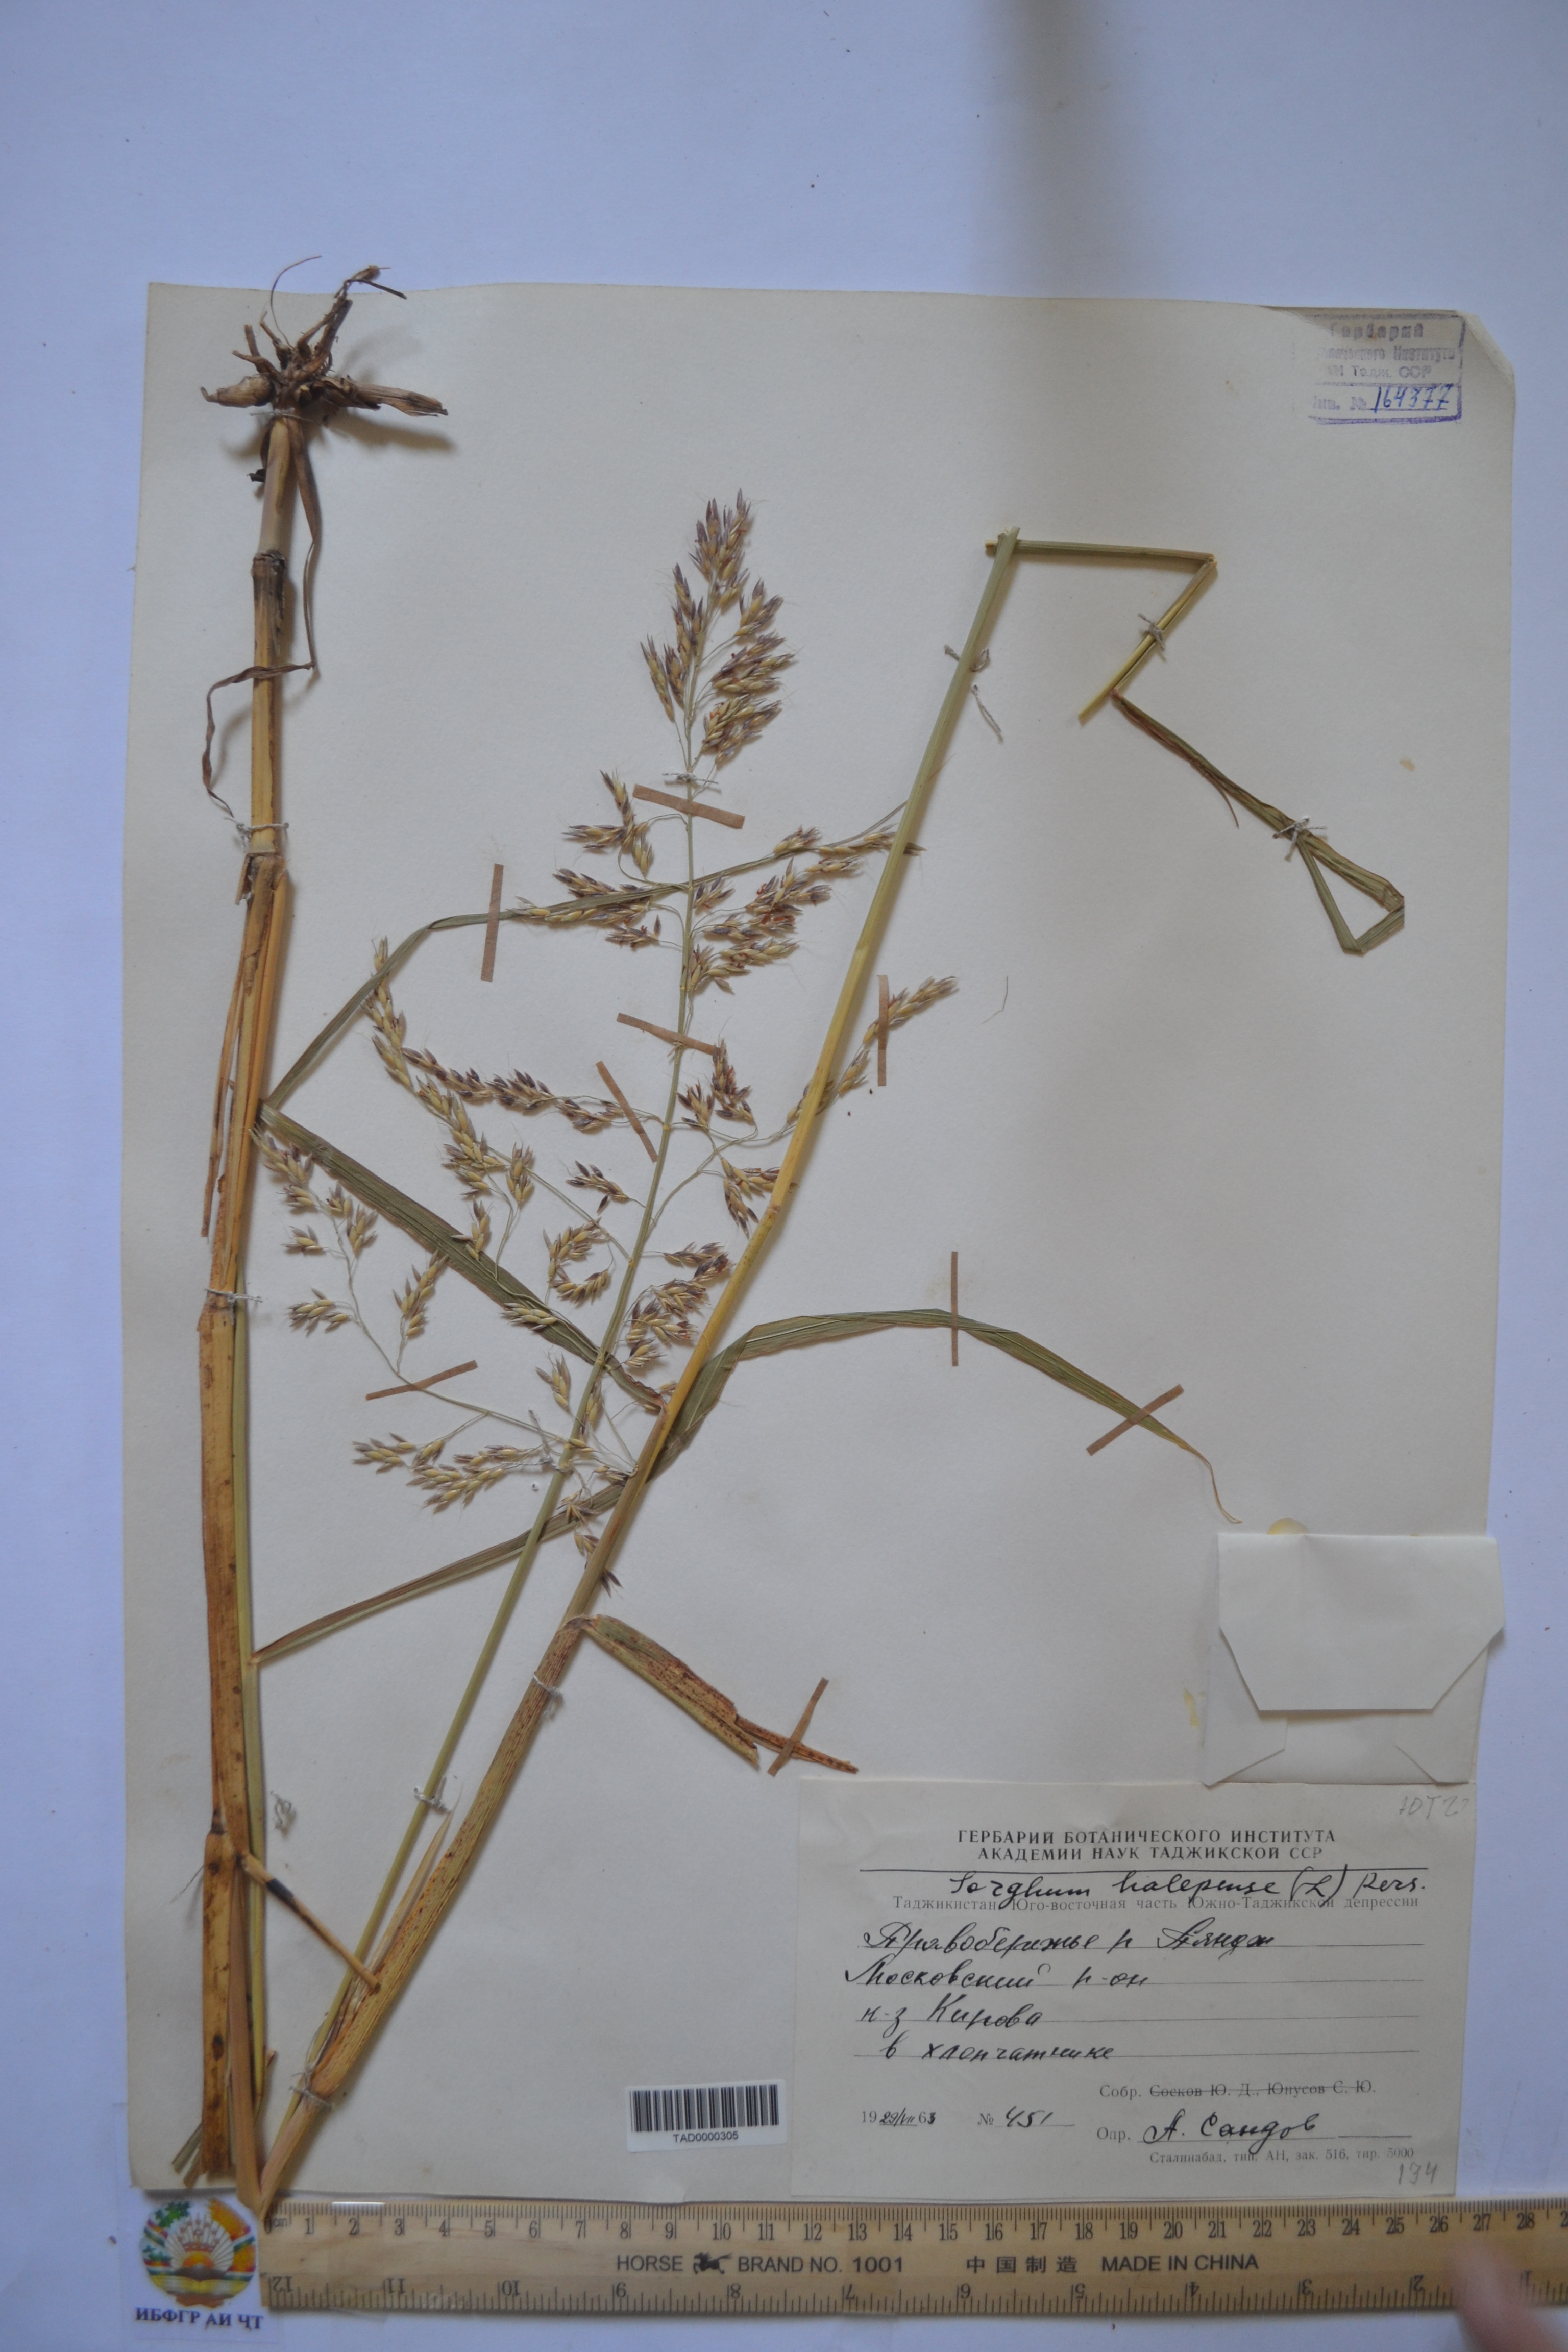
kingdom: Plantae
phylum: Tracheophyta
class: Liliopsida
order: Poales
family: Poaceae
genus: Andropogon
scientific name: Andropogon halepensis
